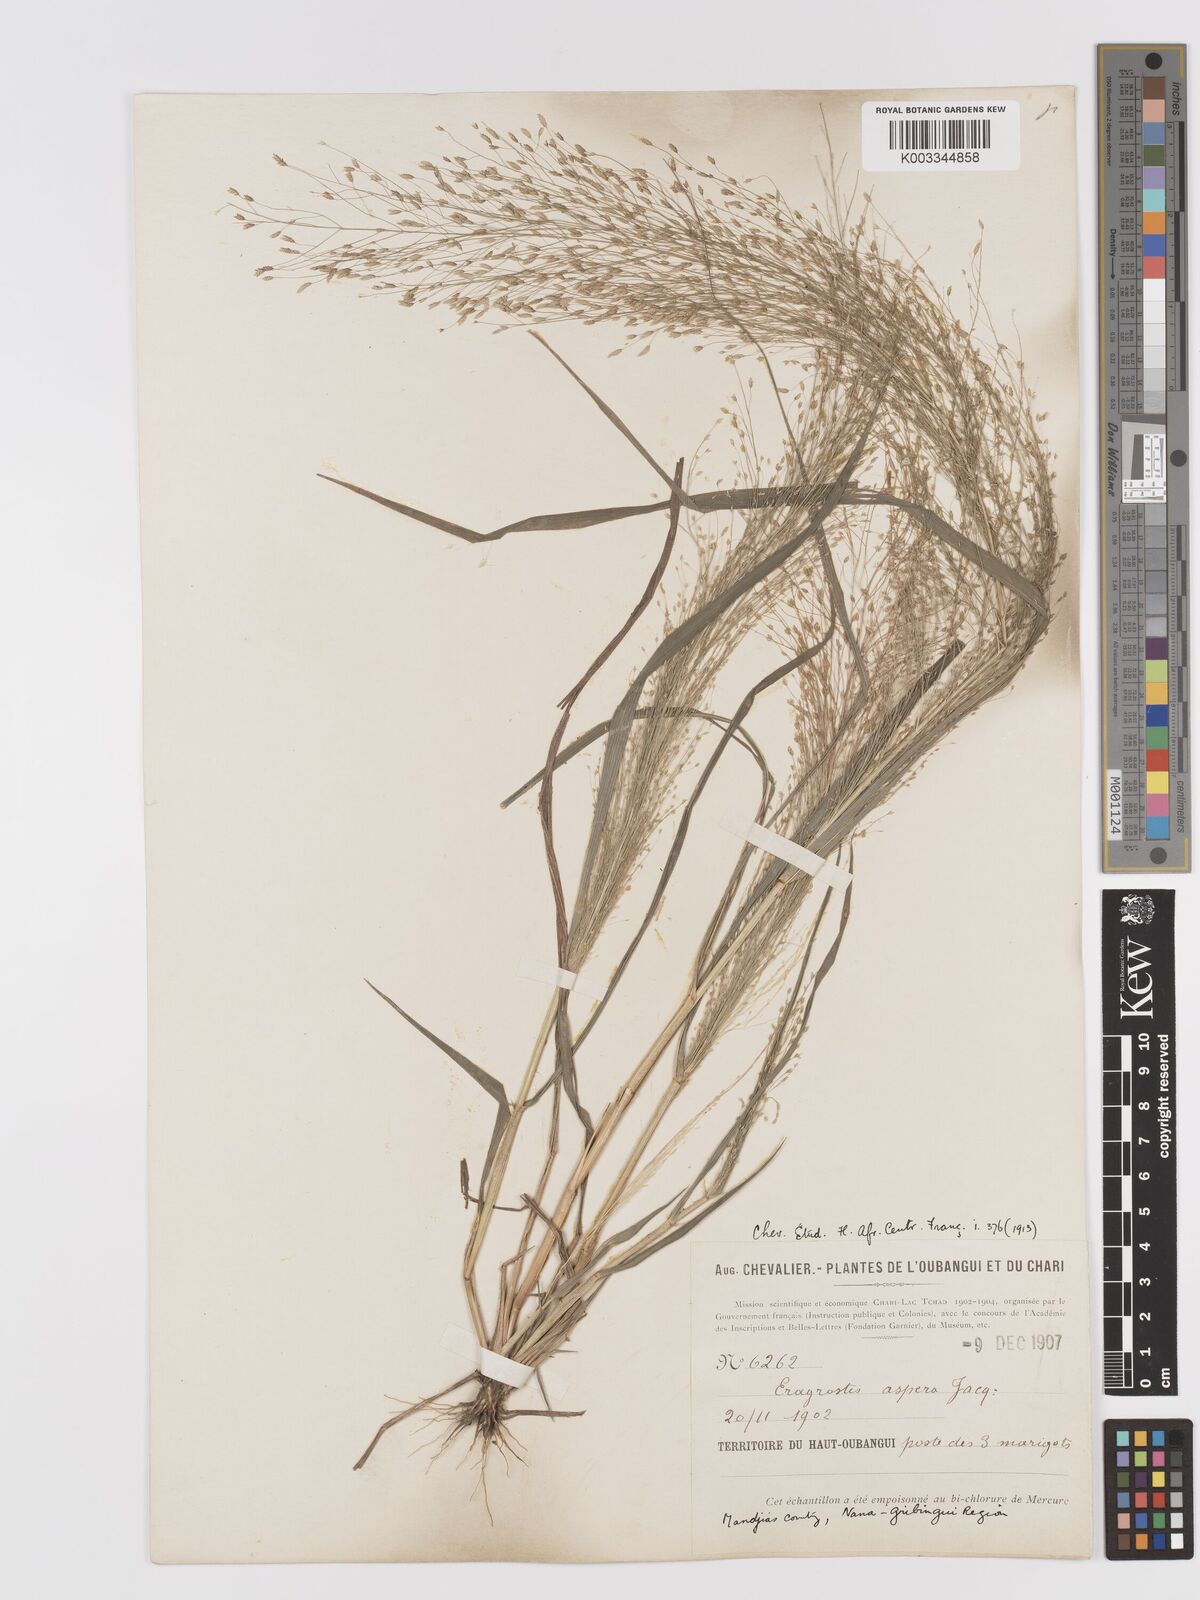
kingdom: Plantae
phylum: Tracheophyta
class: Liliopsida
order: Poales
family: Poaceae
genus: Eragrostis
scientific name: Eragrostis aspera
